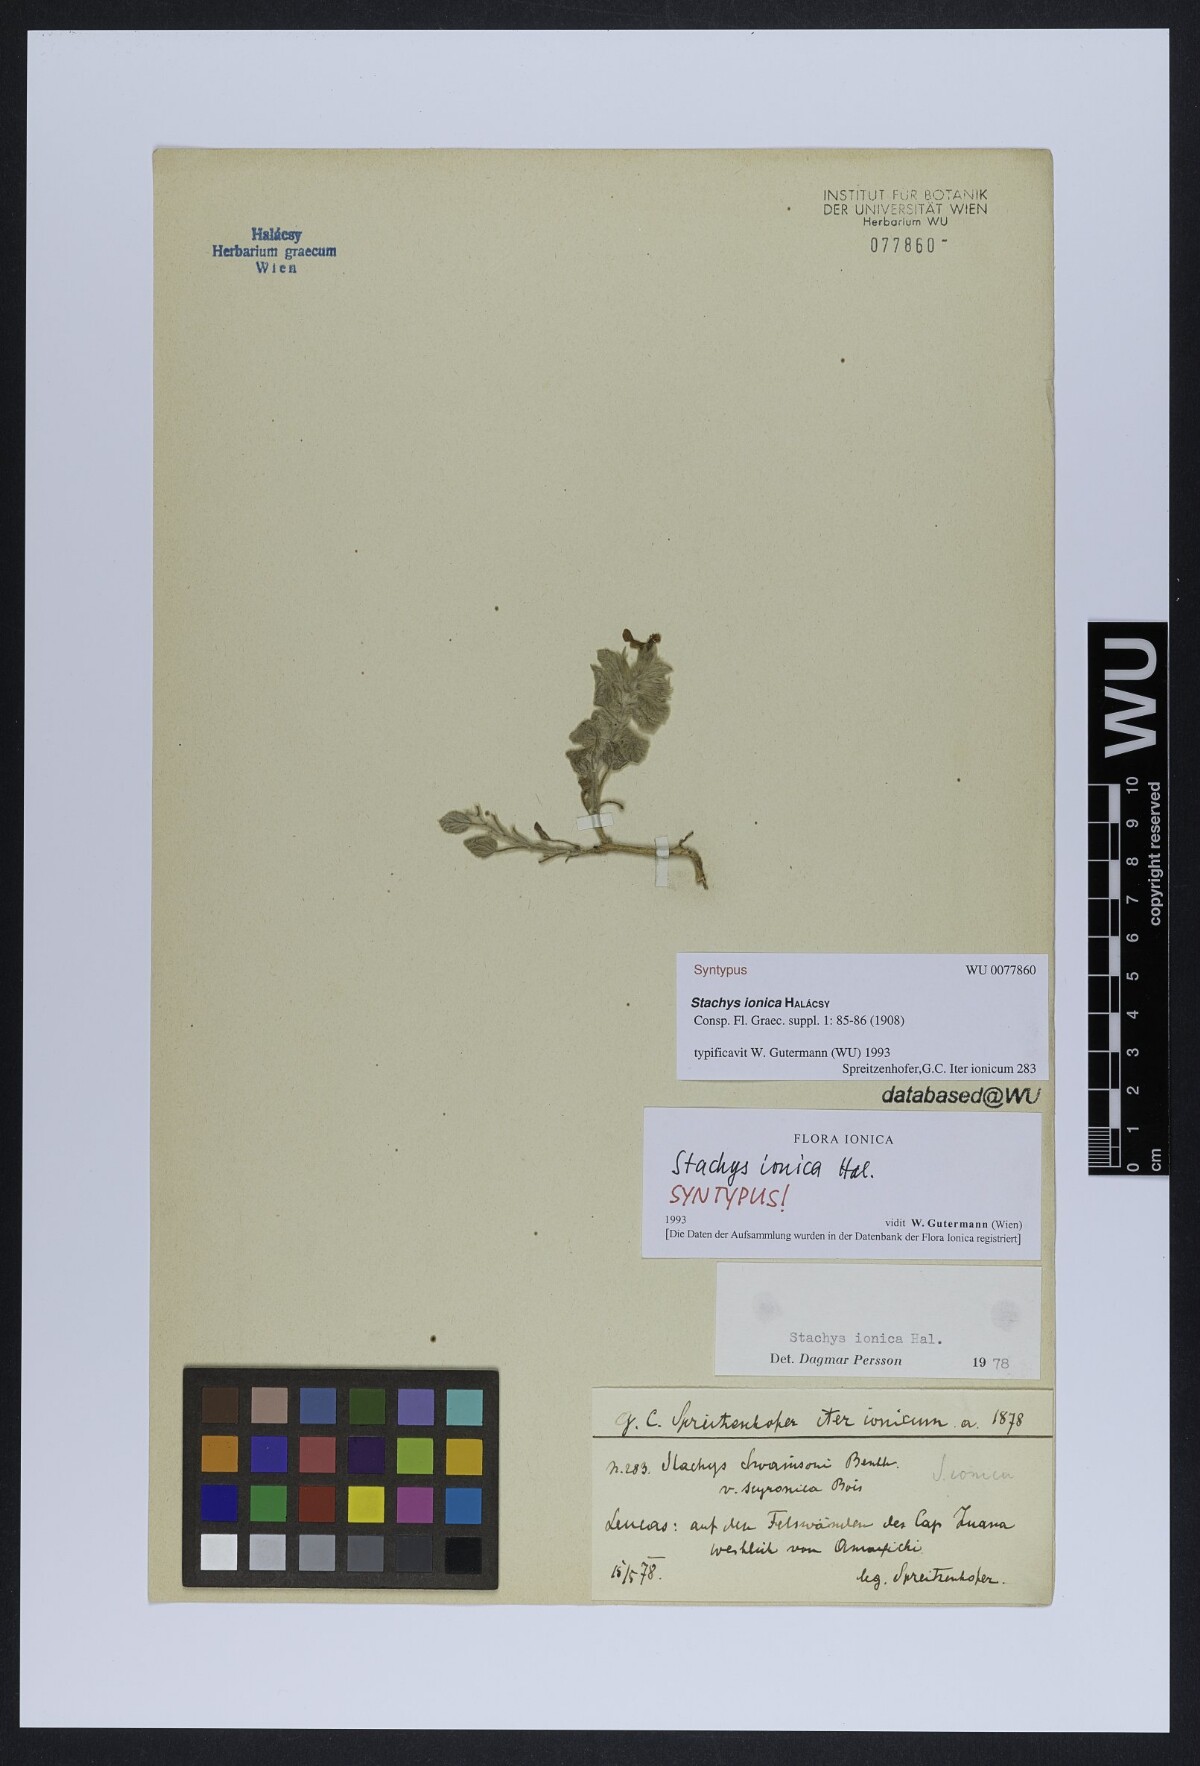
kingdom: Plantae
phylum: Tracheophyta
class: Magnoliopsida
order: Lamiales
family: Lamiaceae
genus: Stachys
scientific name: Stachys ionica
